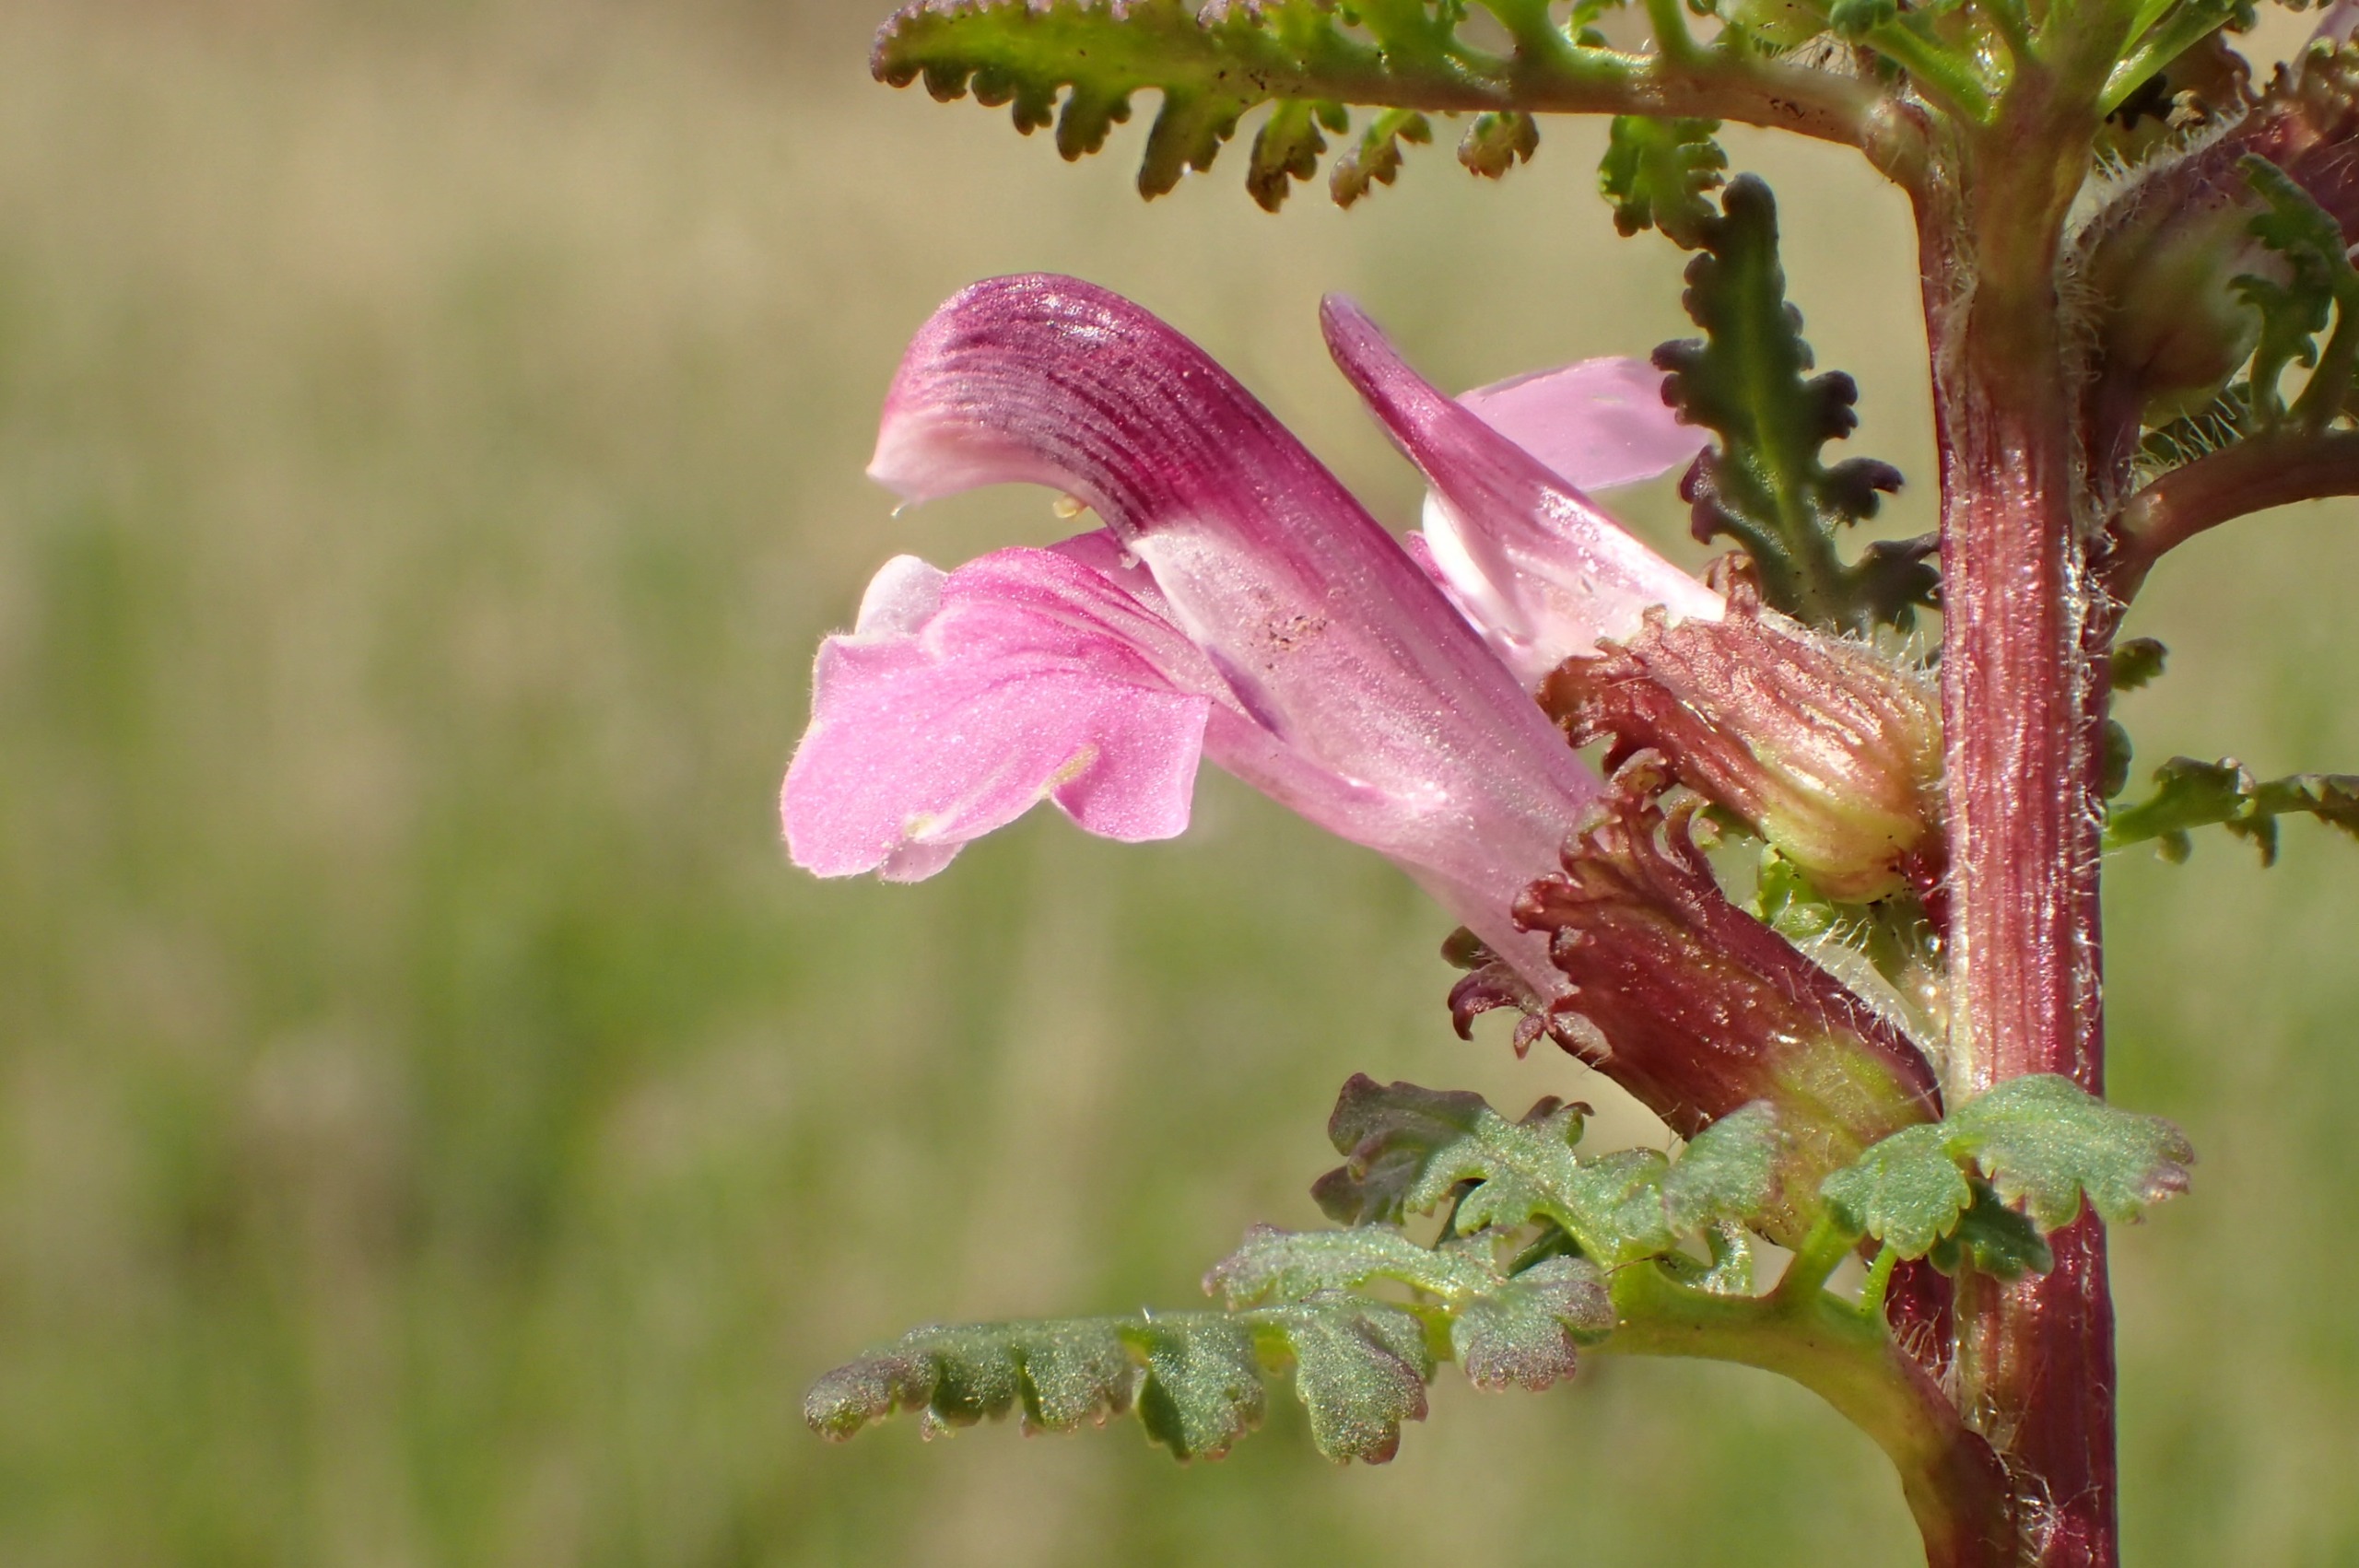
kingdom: Plantae
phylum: Tracheophyta
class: Magnoliopsida
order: Lamiales
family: Orobanchaceae
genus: Pedicularis
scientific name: Pedicularis palustris
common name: Eng-troldurt
